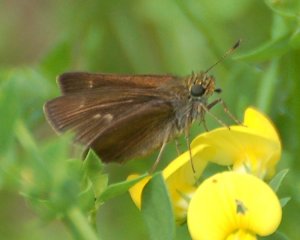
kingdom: Animalia
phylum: Arthropoda
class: Insecta
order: Lepidoptera
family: Hesperiidae
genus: Polites
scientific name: Polites themistocles
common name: Tawny-edged Skipper
